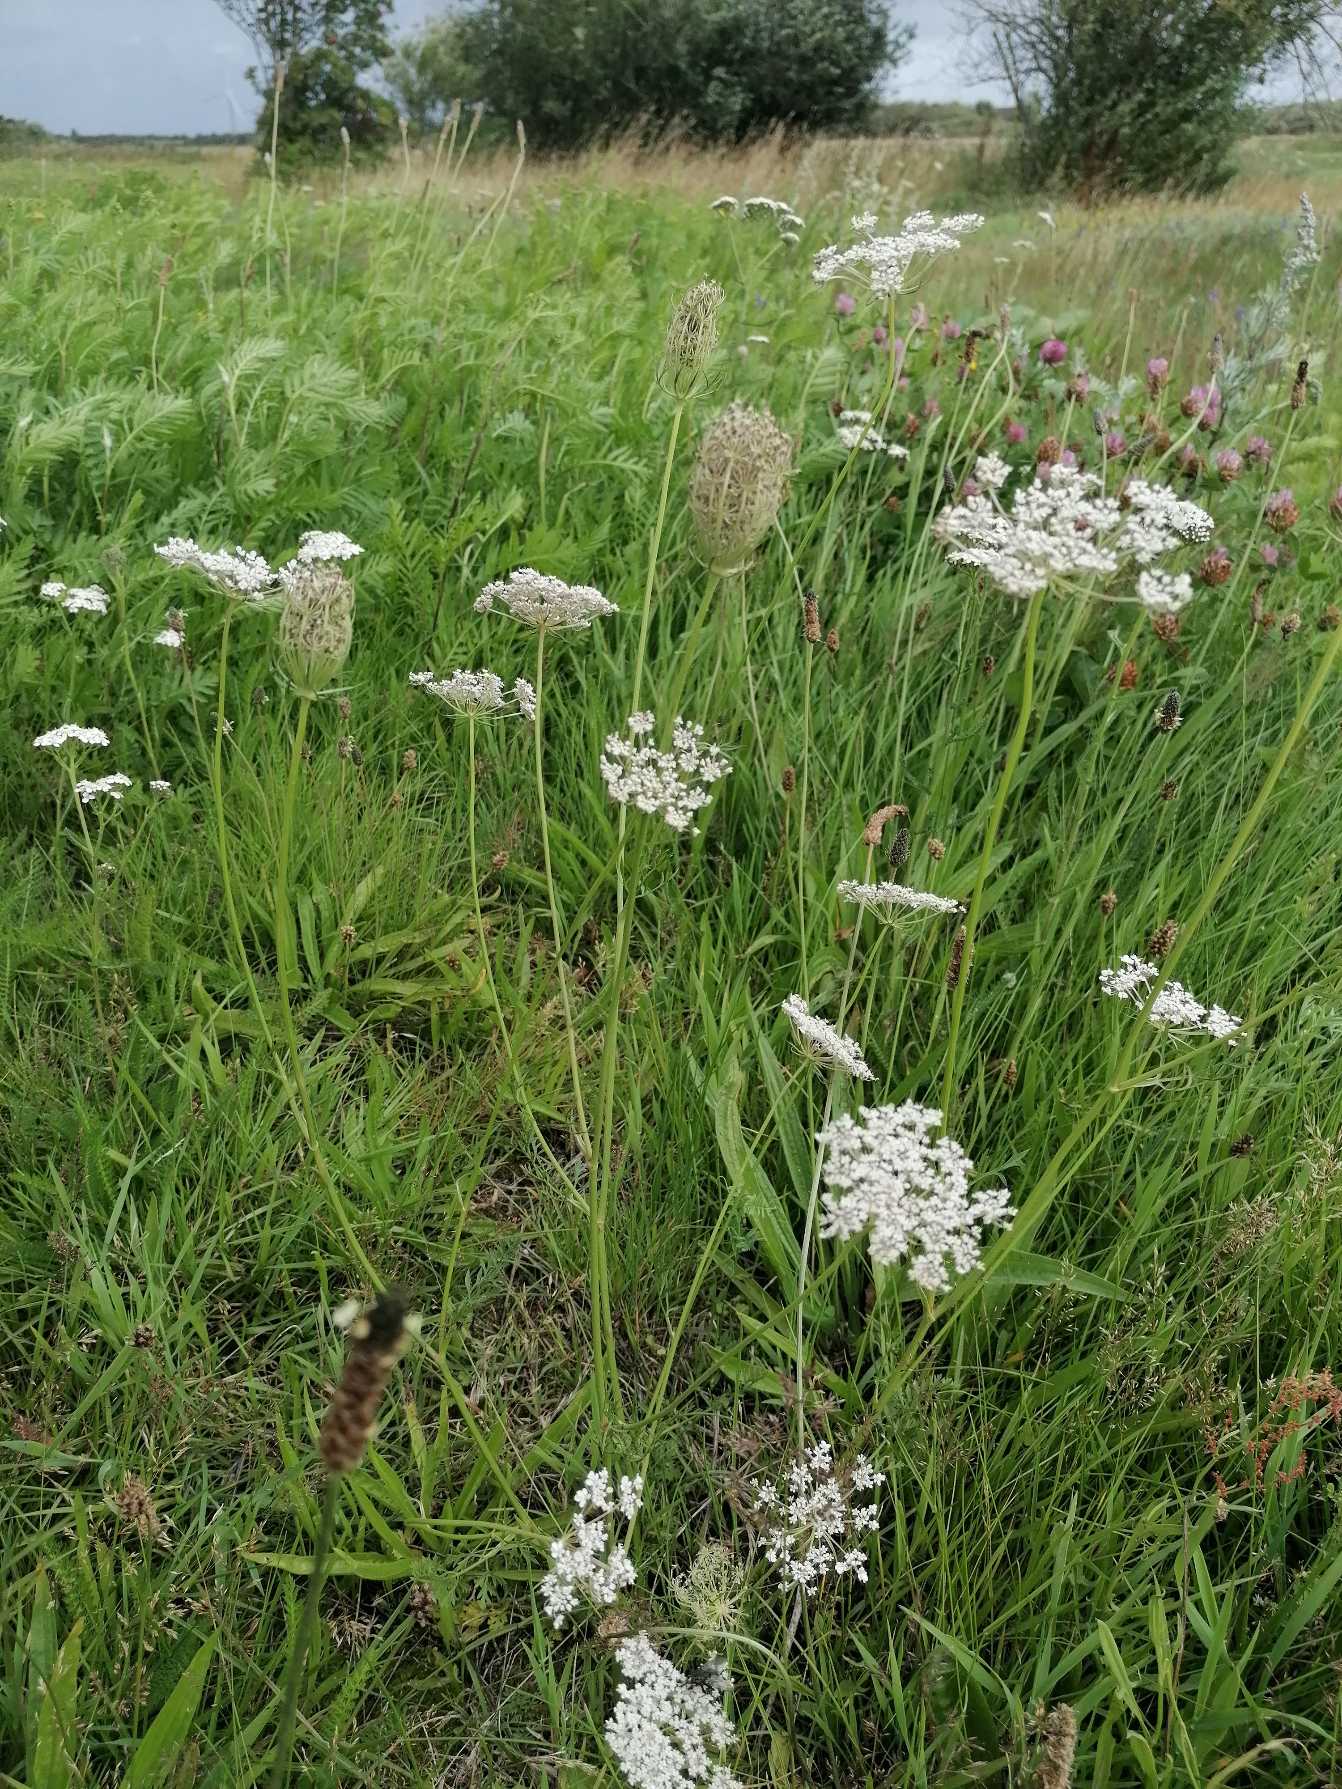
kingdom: Plantae
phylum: Tracheophyta
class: Magnoliopsida
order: Apiales
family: Apiaceae
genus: Daucus
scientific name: Daucus carota
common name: Gulerod
